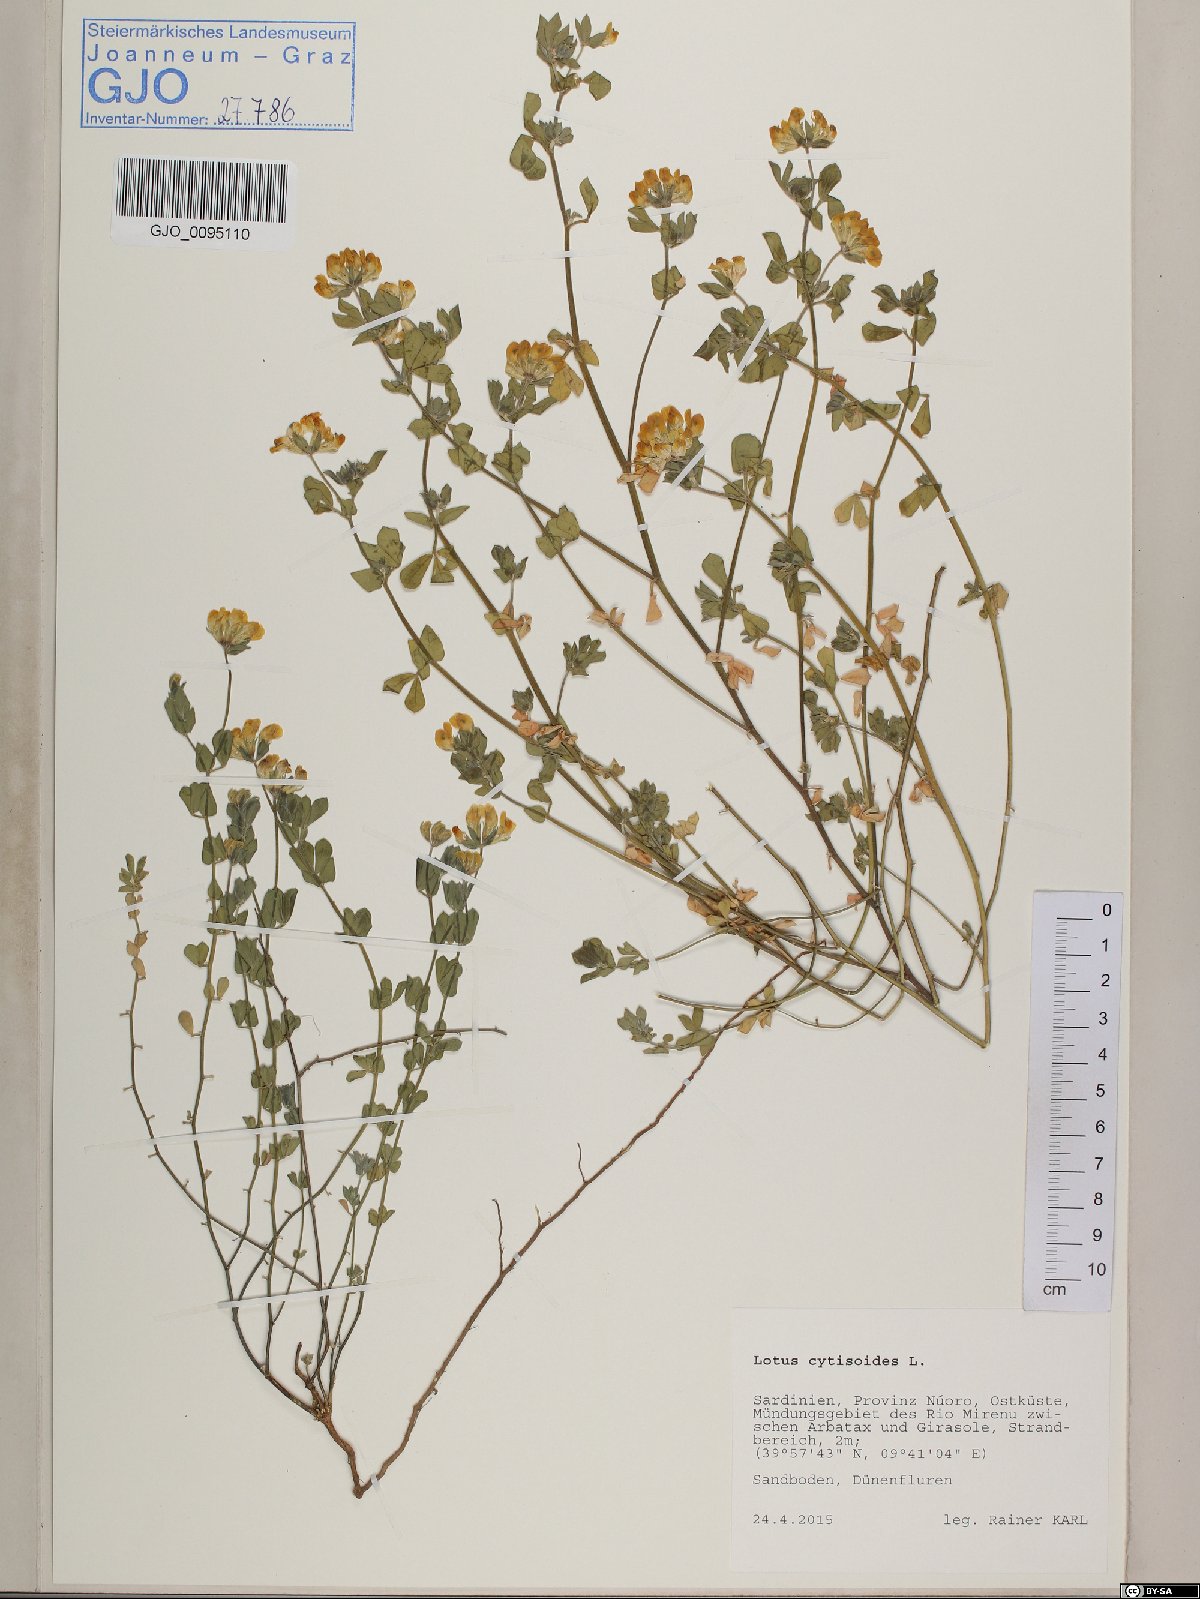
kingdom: Plantae
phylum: Tracheophyta
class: Magnoliopsida
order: Fabales
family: Fabaceae
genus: Lotus
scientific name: Lotus cytisoides
